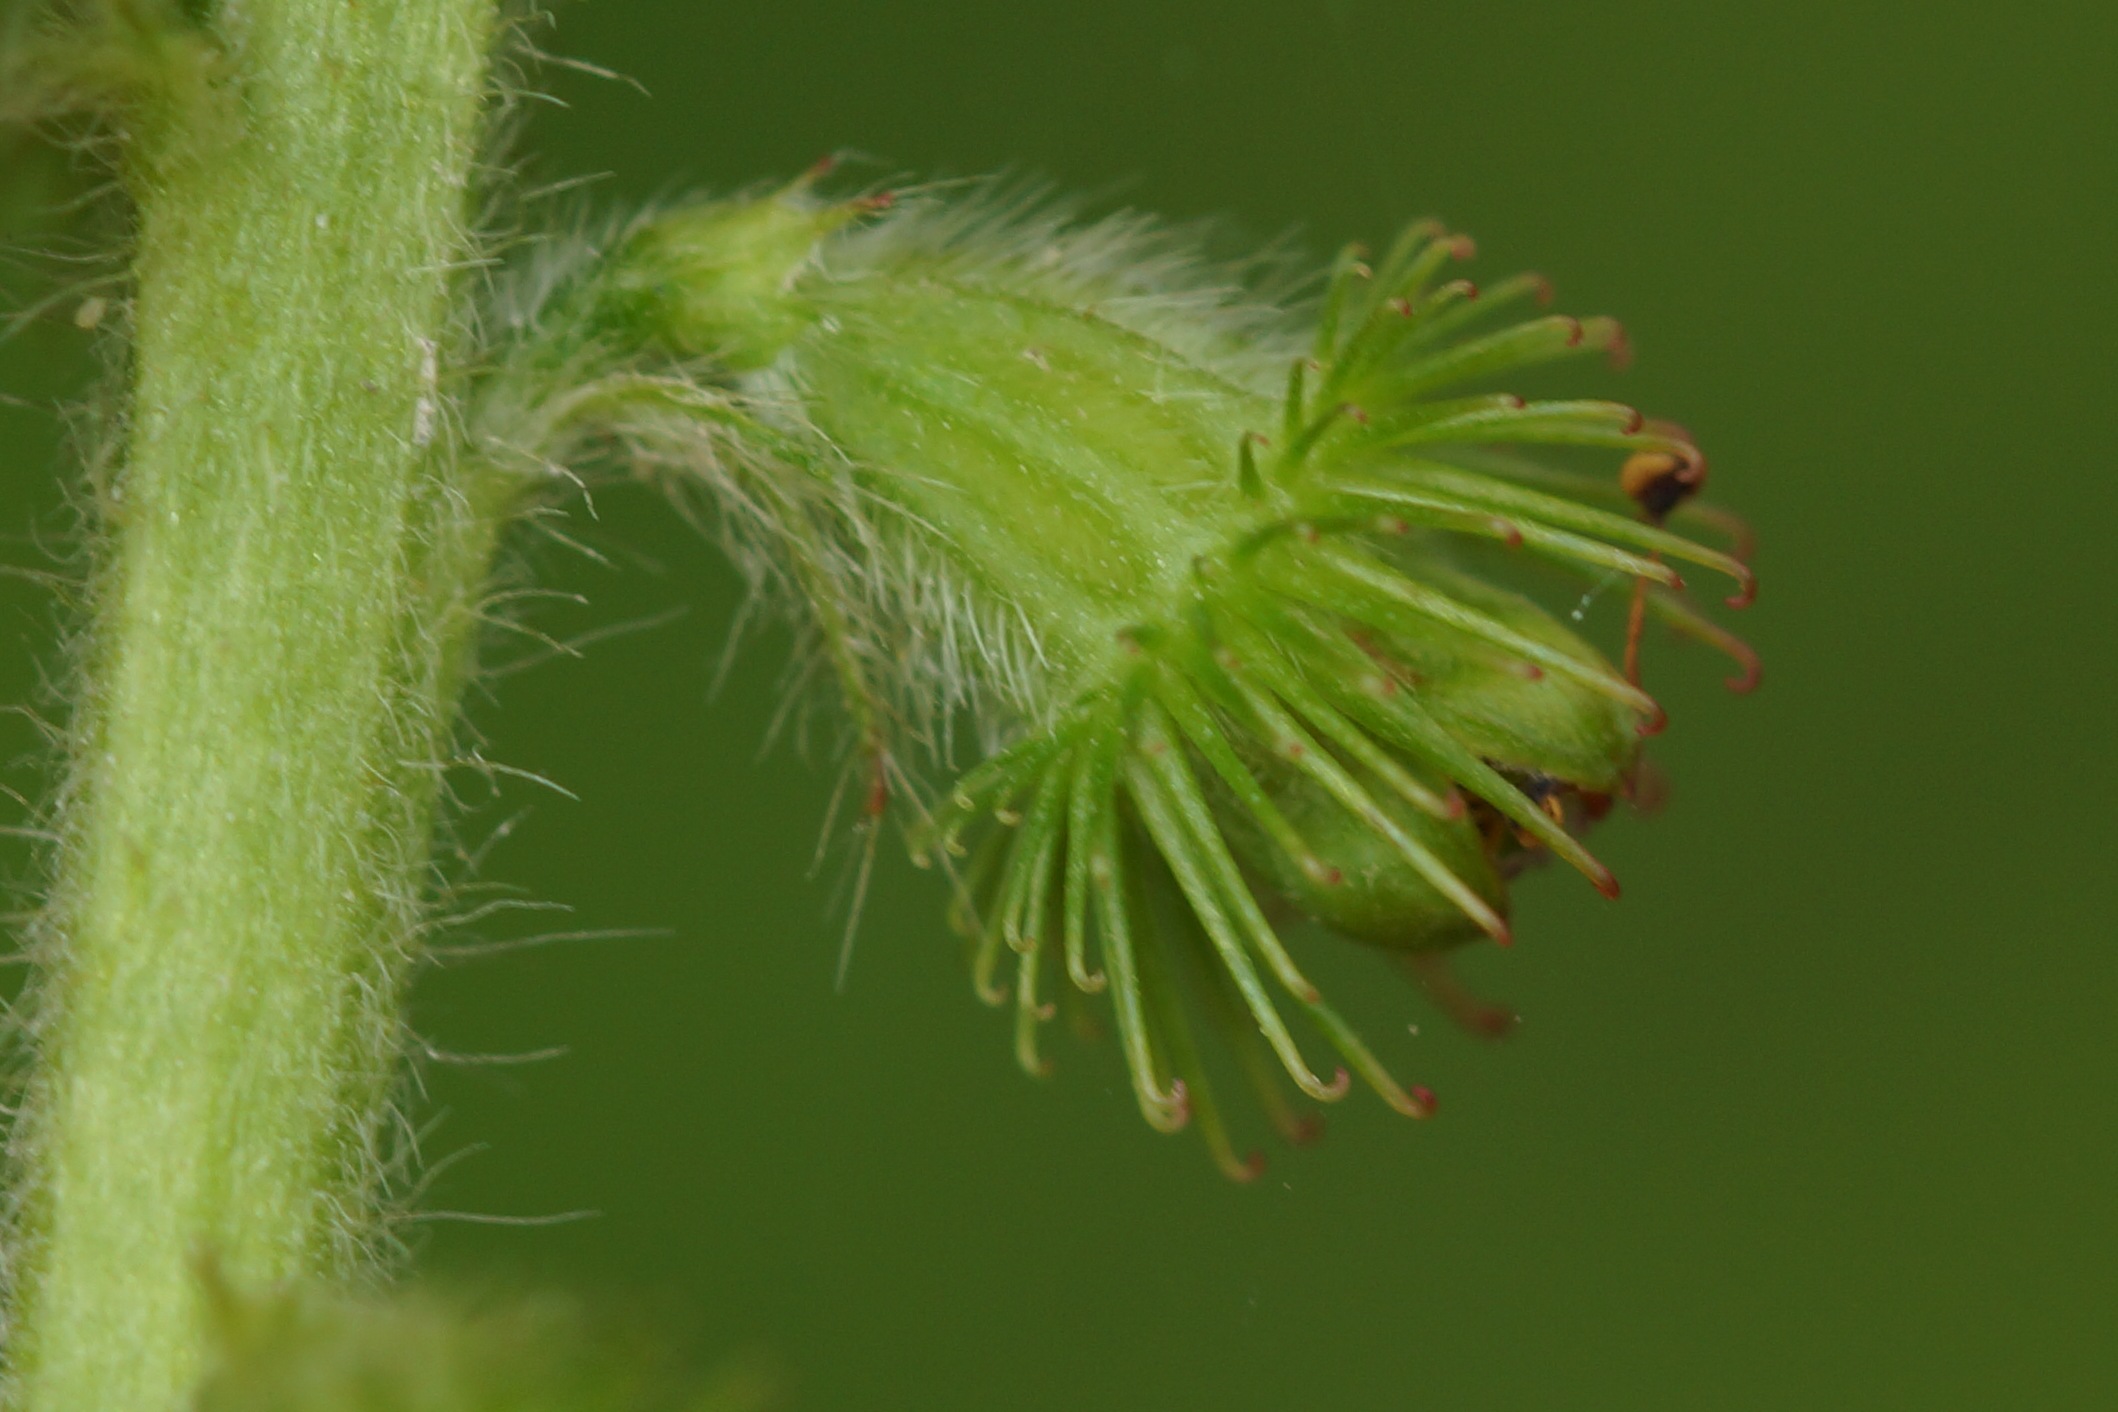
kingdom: Plantae
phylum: Tracheophyta
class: Magnoliopsida
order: Rosales
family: Rosaceae
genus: Agrimonia
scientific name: Agrimonia eupatoria
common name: Almindelig agermåne
